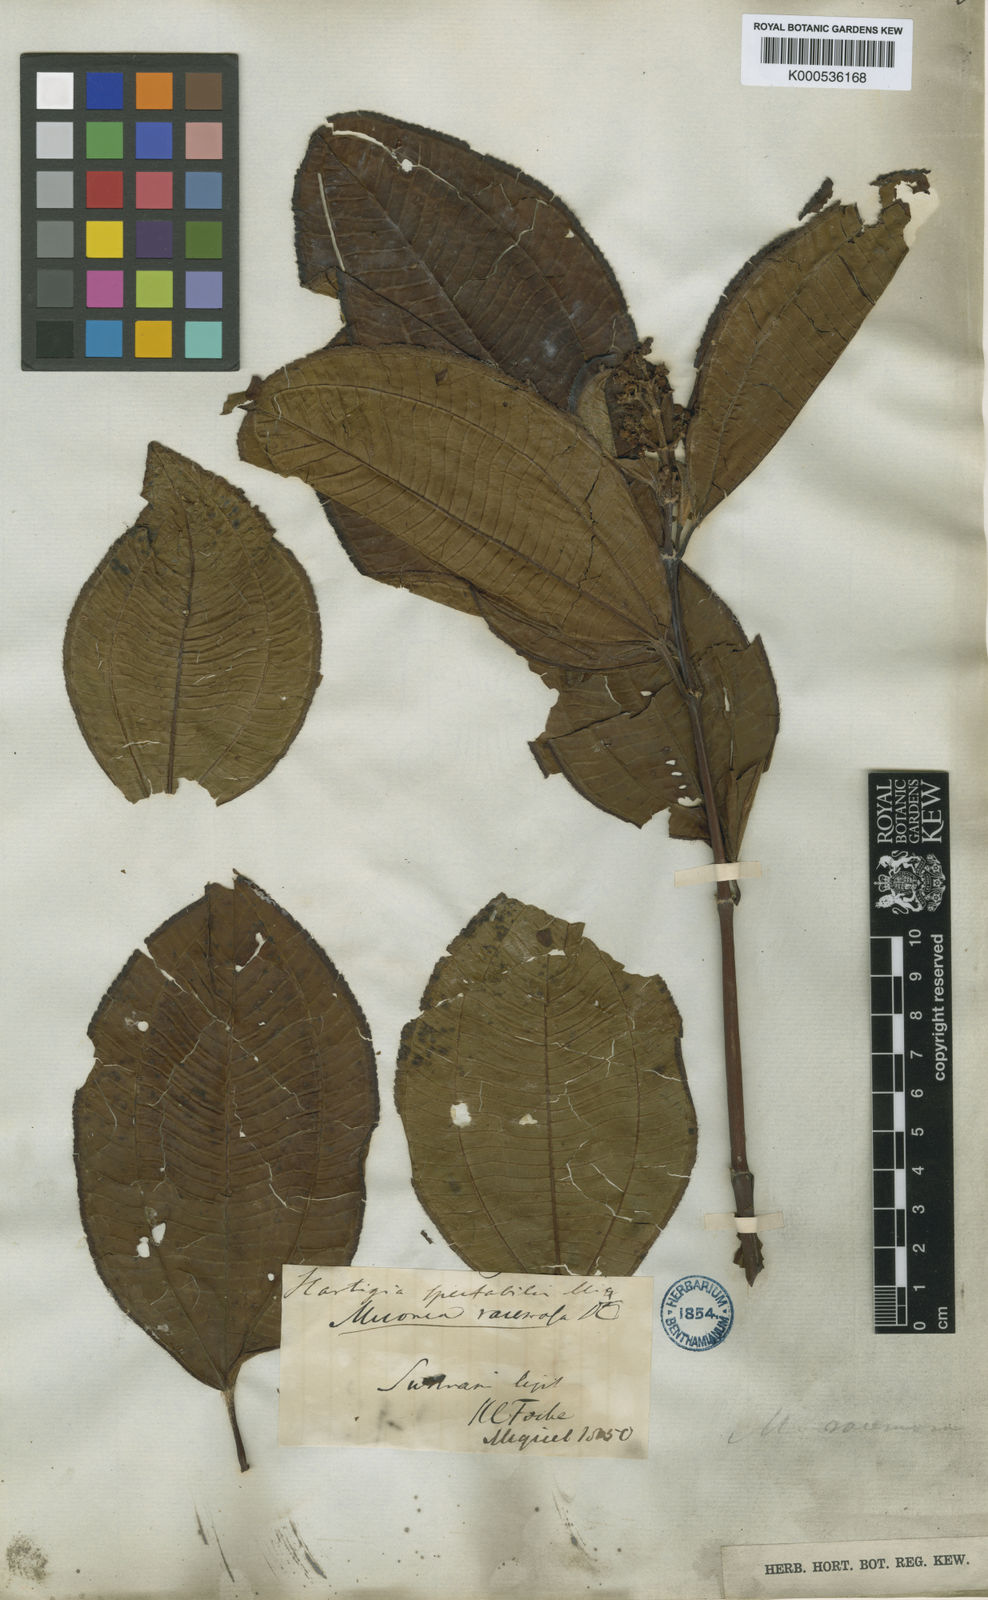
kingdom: Plantae
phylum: Tracheophyta
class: Magnoliopsida
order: Myrtales
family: Melastomataceae
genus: Miconia
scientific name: Miconia racemosa
